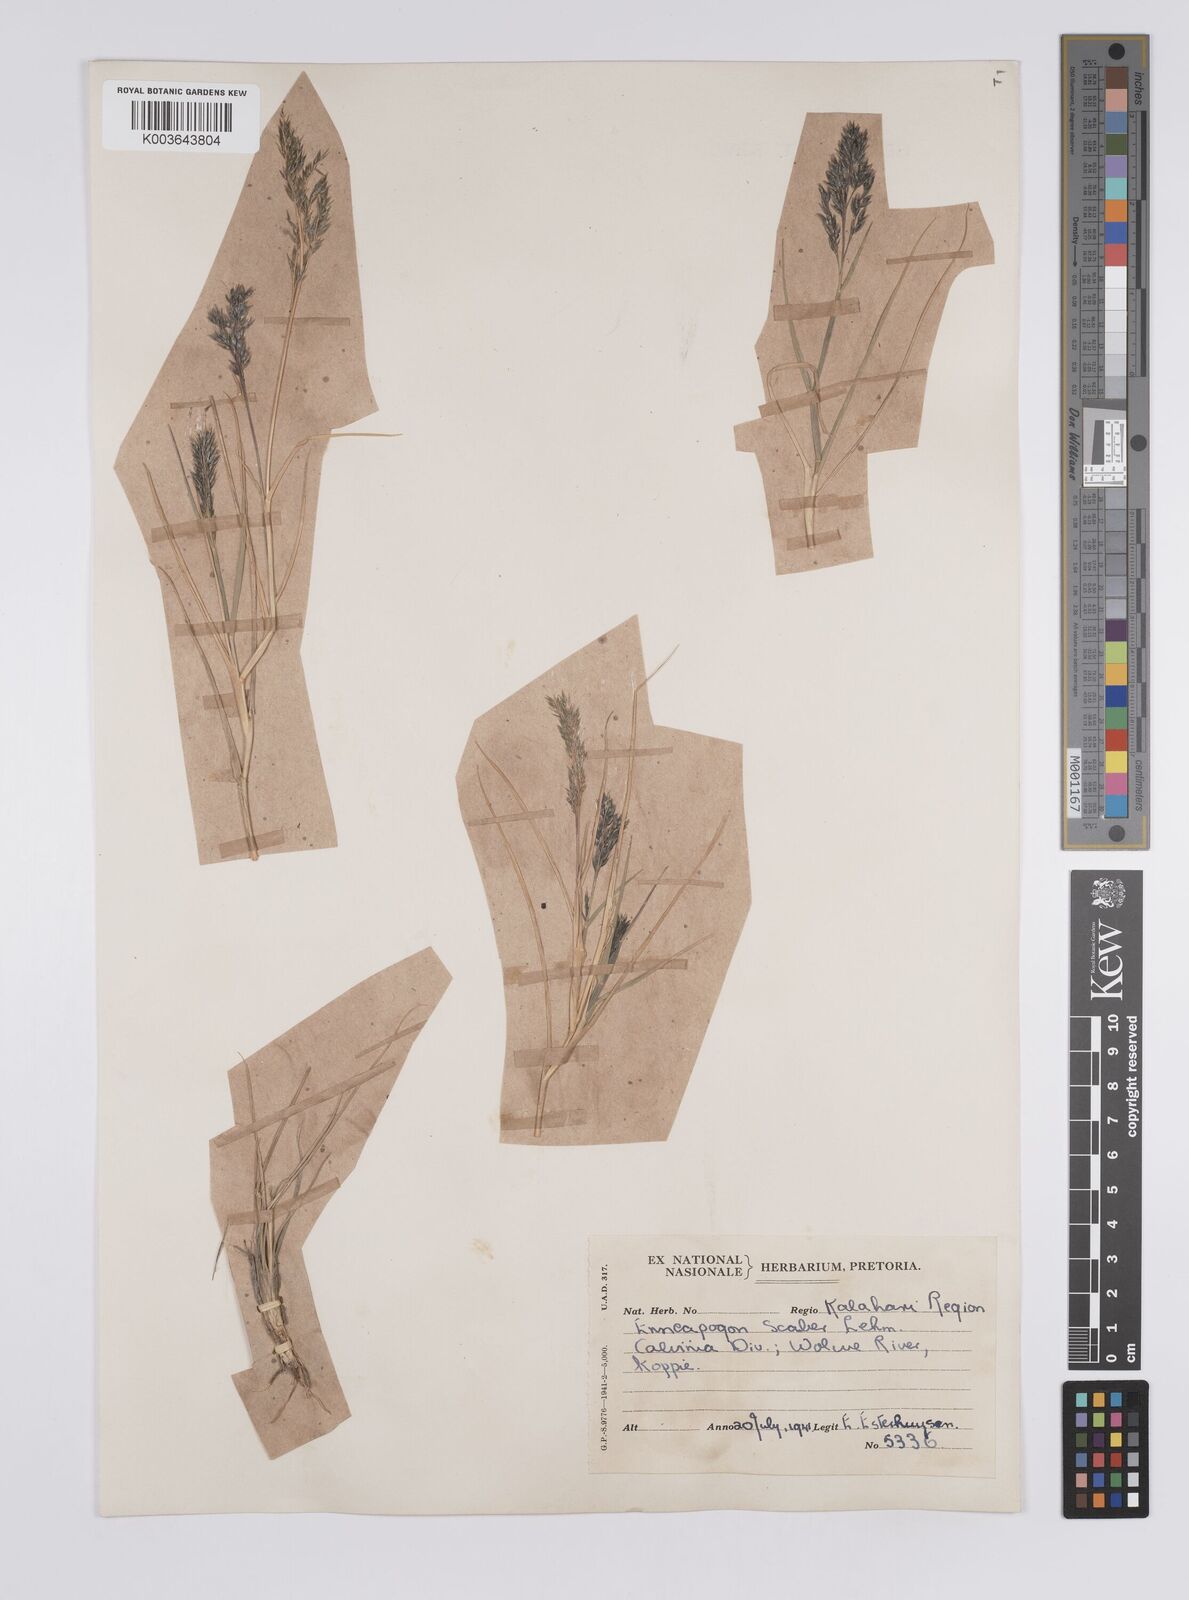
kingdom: Plantae
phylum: Tracheophyta
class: Liliopsida
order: Poales
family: Poaceae
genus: Enneapogon
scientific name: Enneapogon scaber
